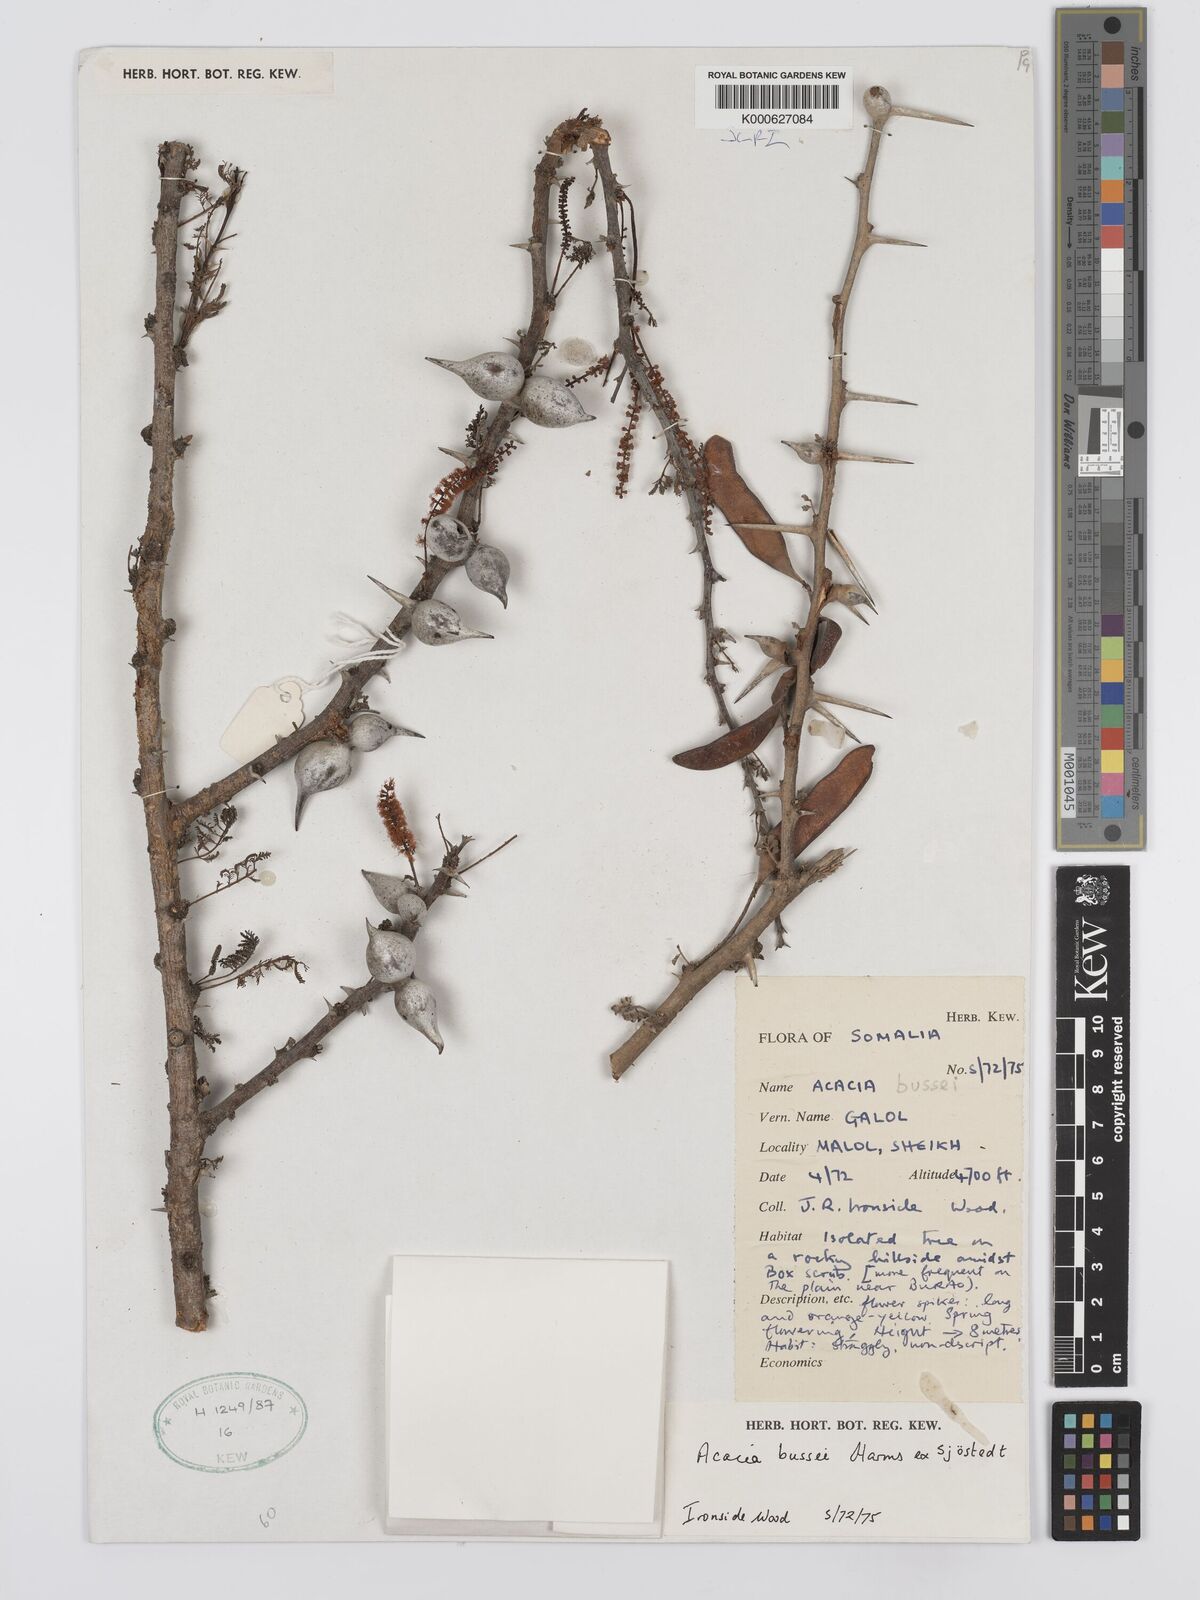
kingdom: Plantae
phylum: Tracheophyta
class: Magnoliopsida
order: Fabales
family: Fabaceae
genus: Vachellia
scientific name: Vachellia bussei
